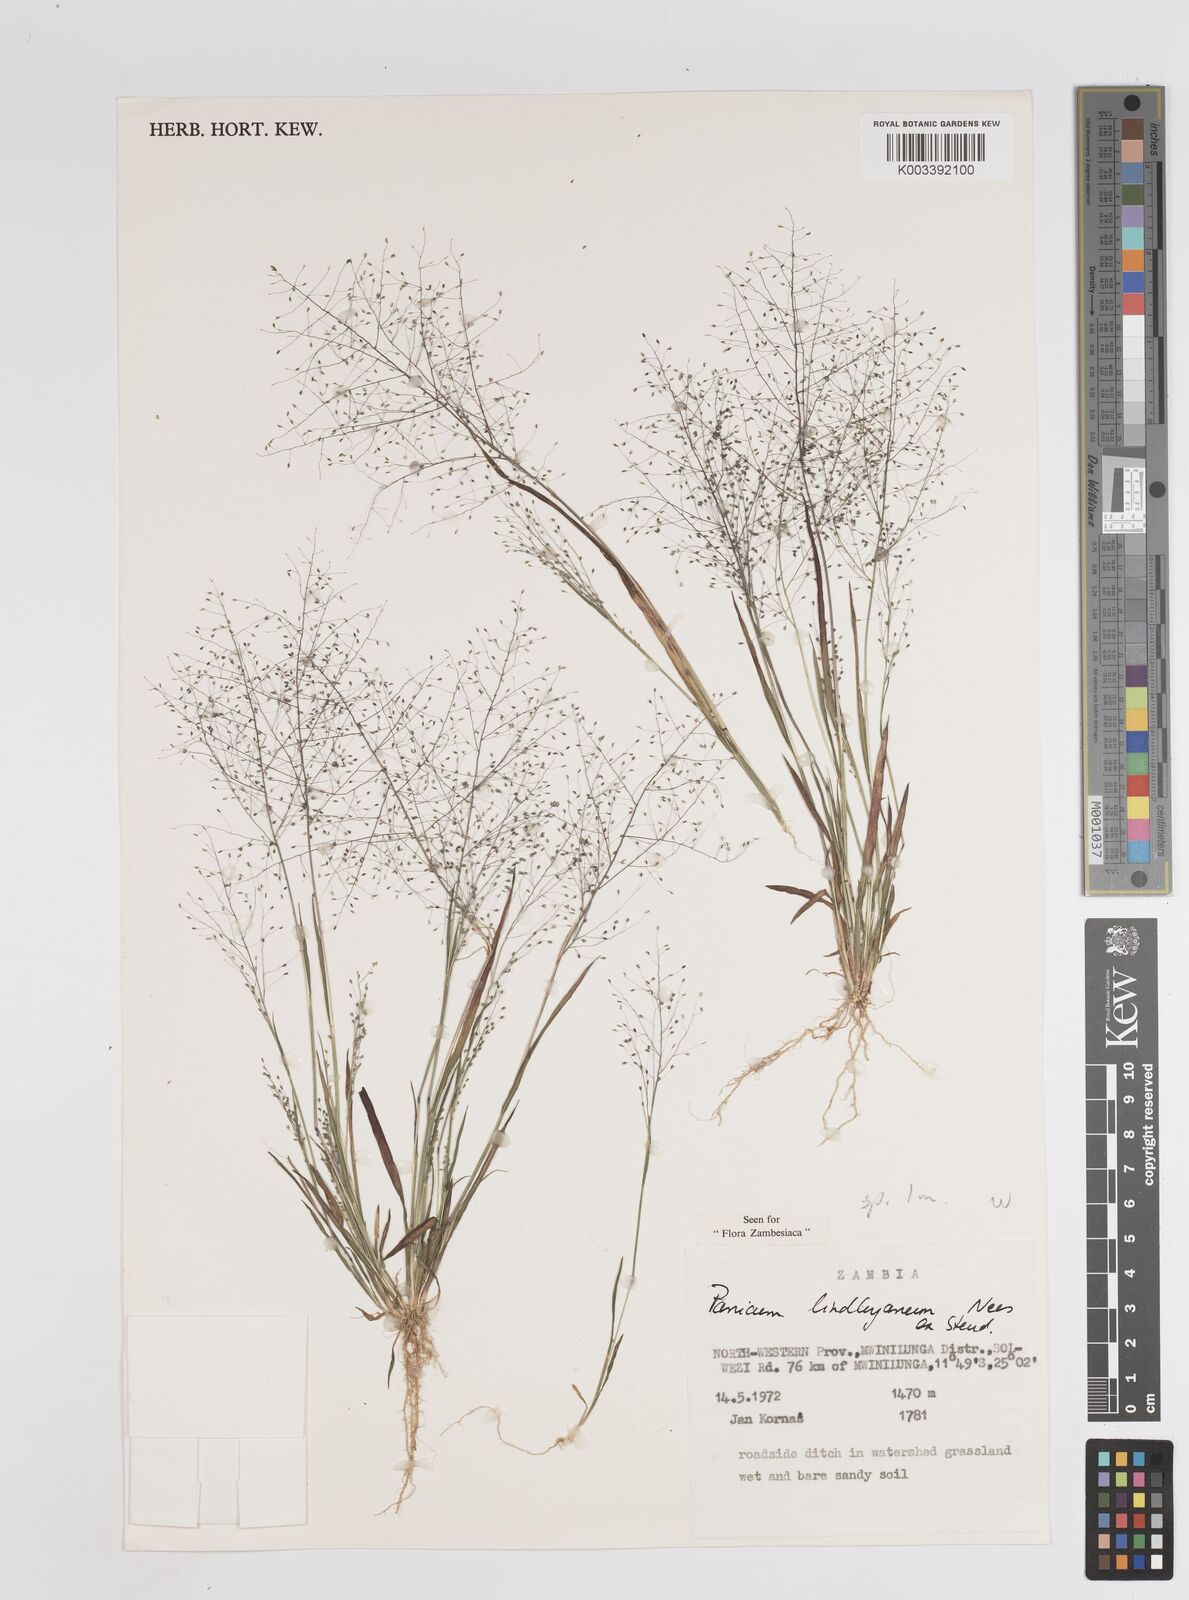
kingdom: Plantae
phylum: Tracheophyta
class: Liliopsida
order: Poales
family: Poaceae
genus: Trichanthecium
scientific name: Trichanthecium tenellum
